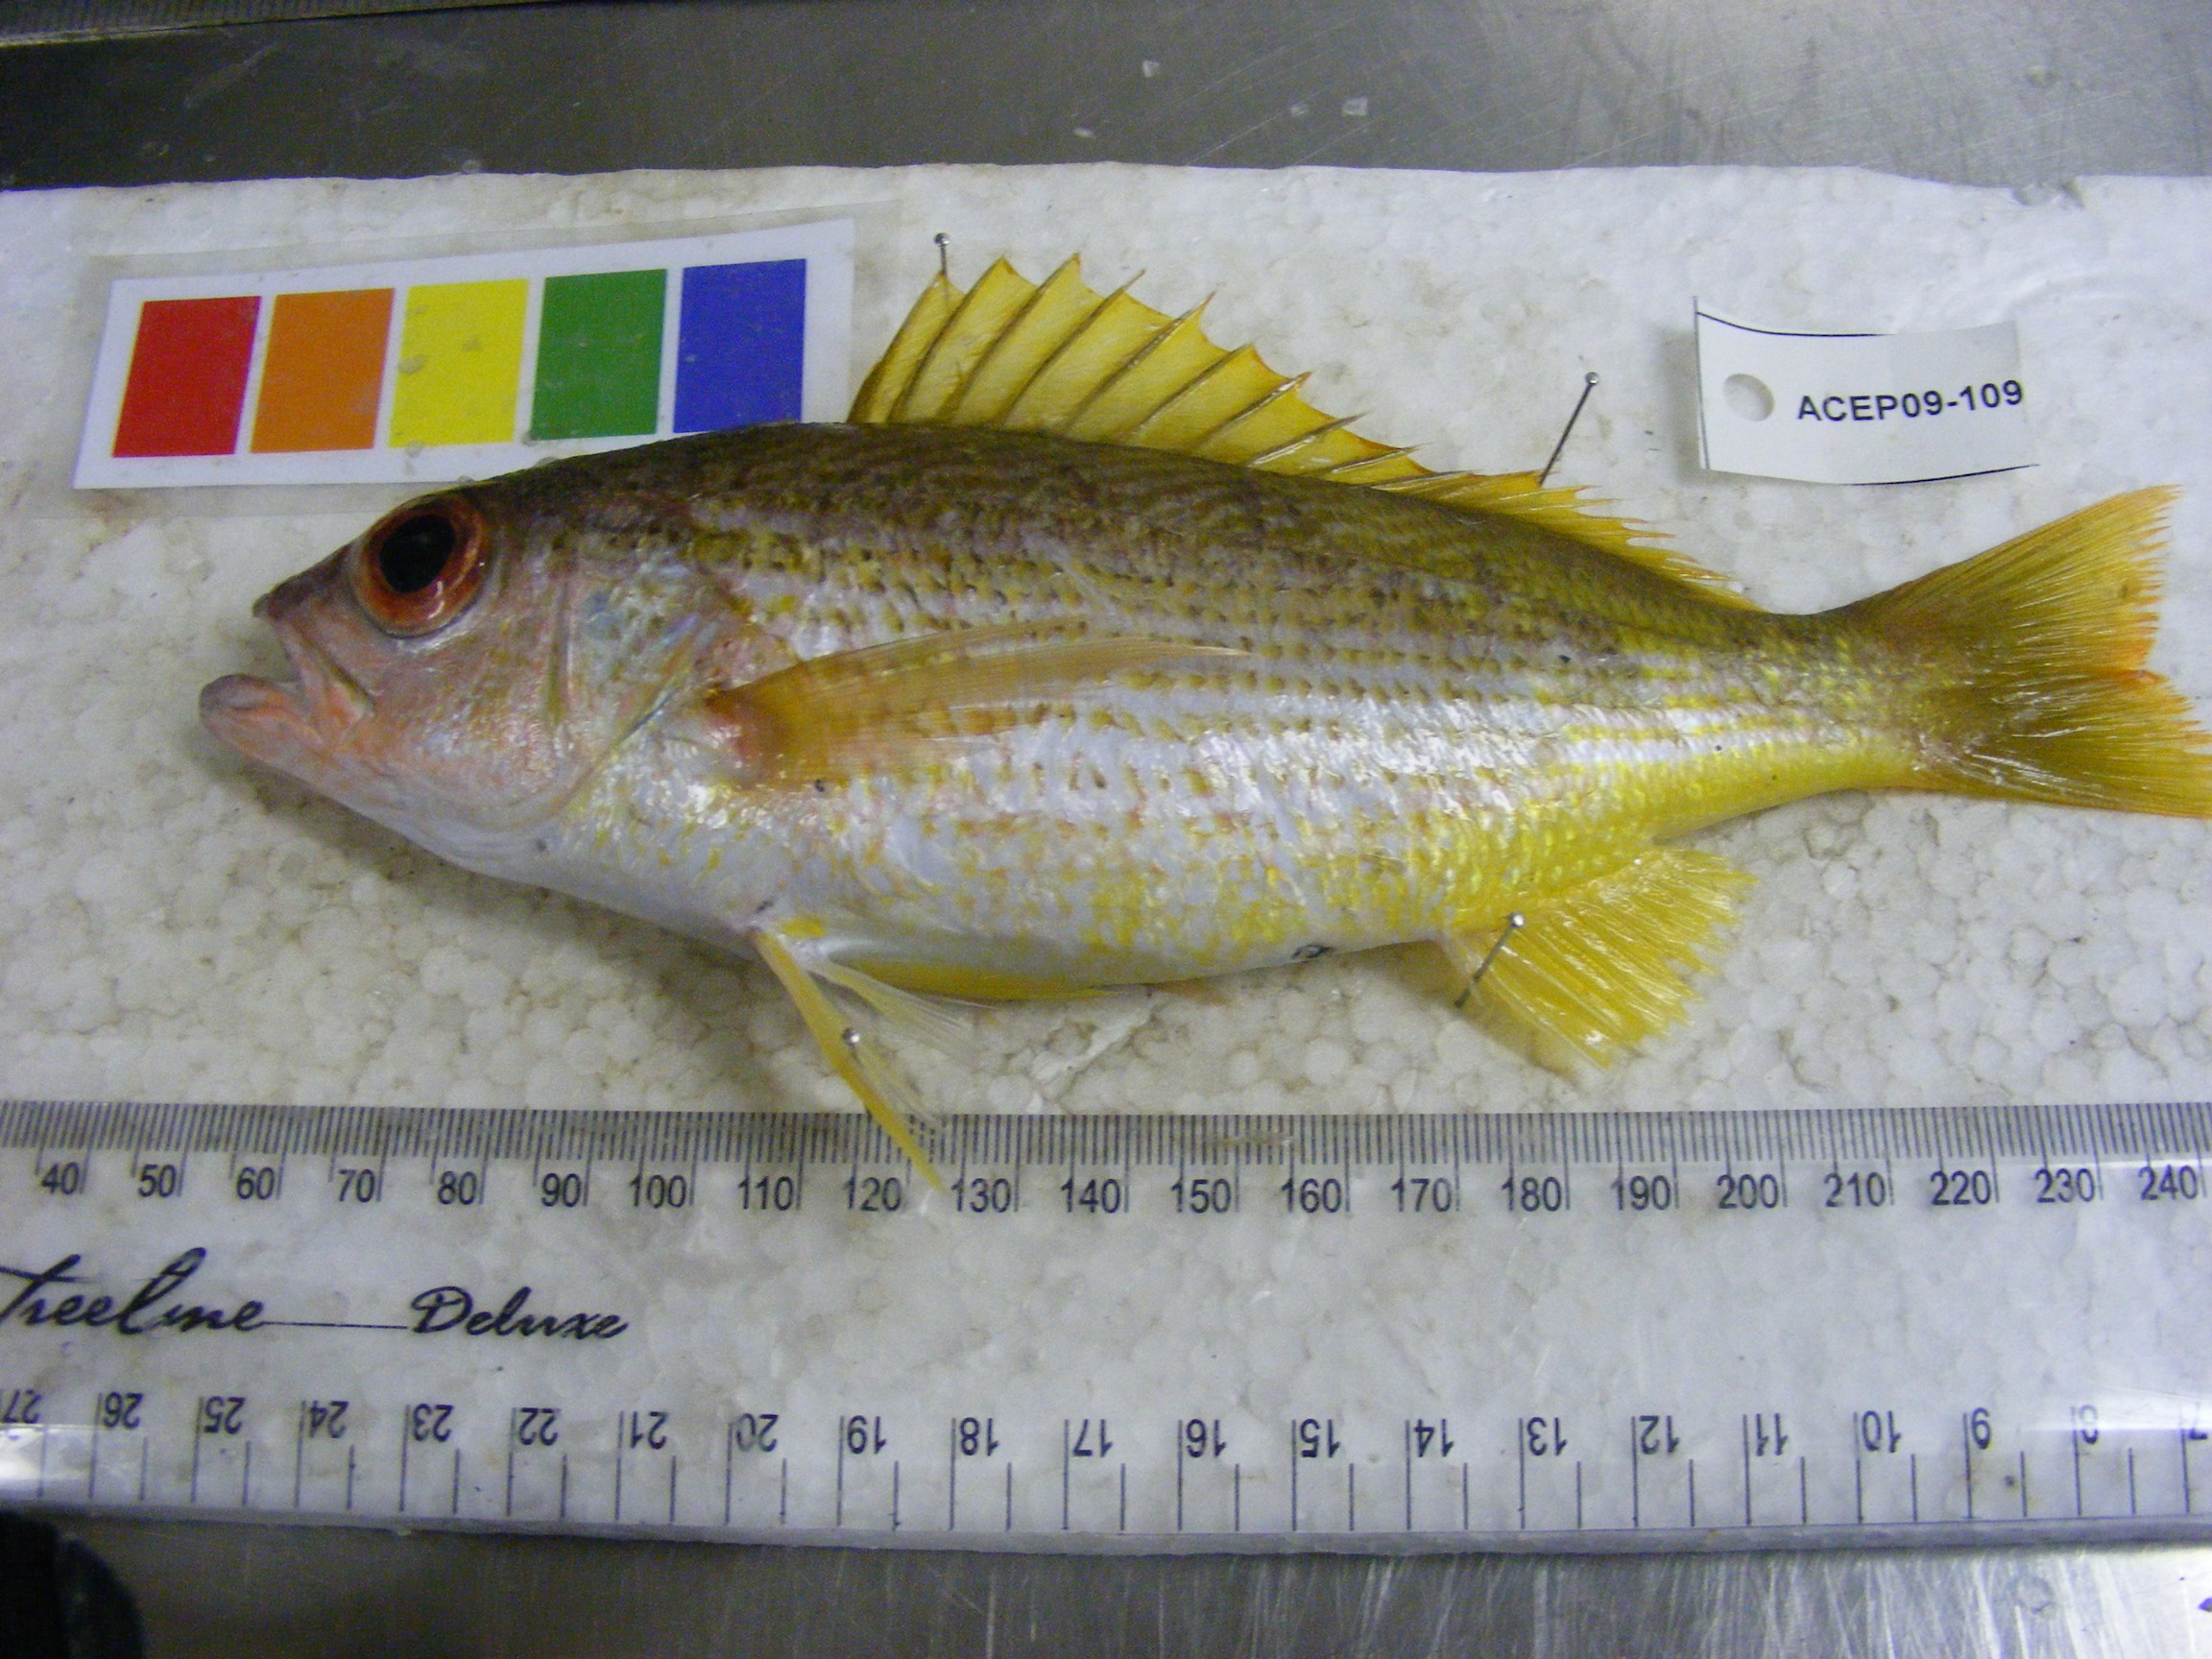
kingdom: Animalia
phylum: Chordata
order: Perciformes
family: Lutjanidae
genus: Lutjanus
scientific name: Lutjanus lutjanus
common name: Bigeye snapper
